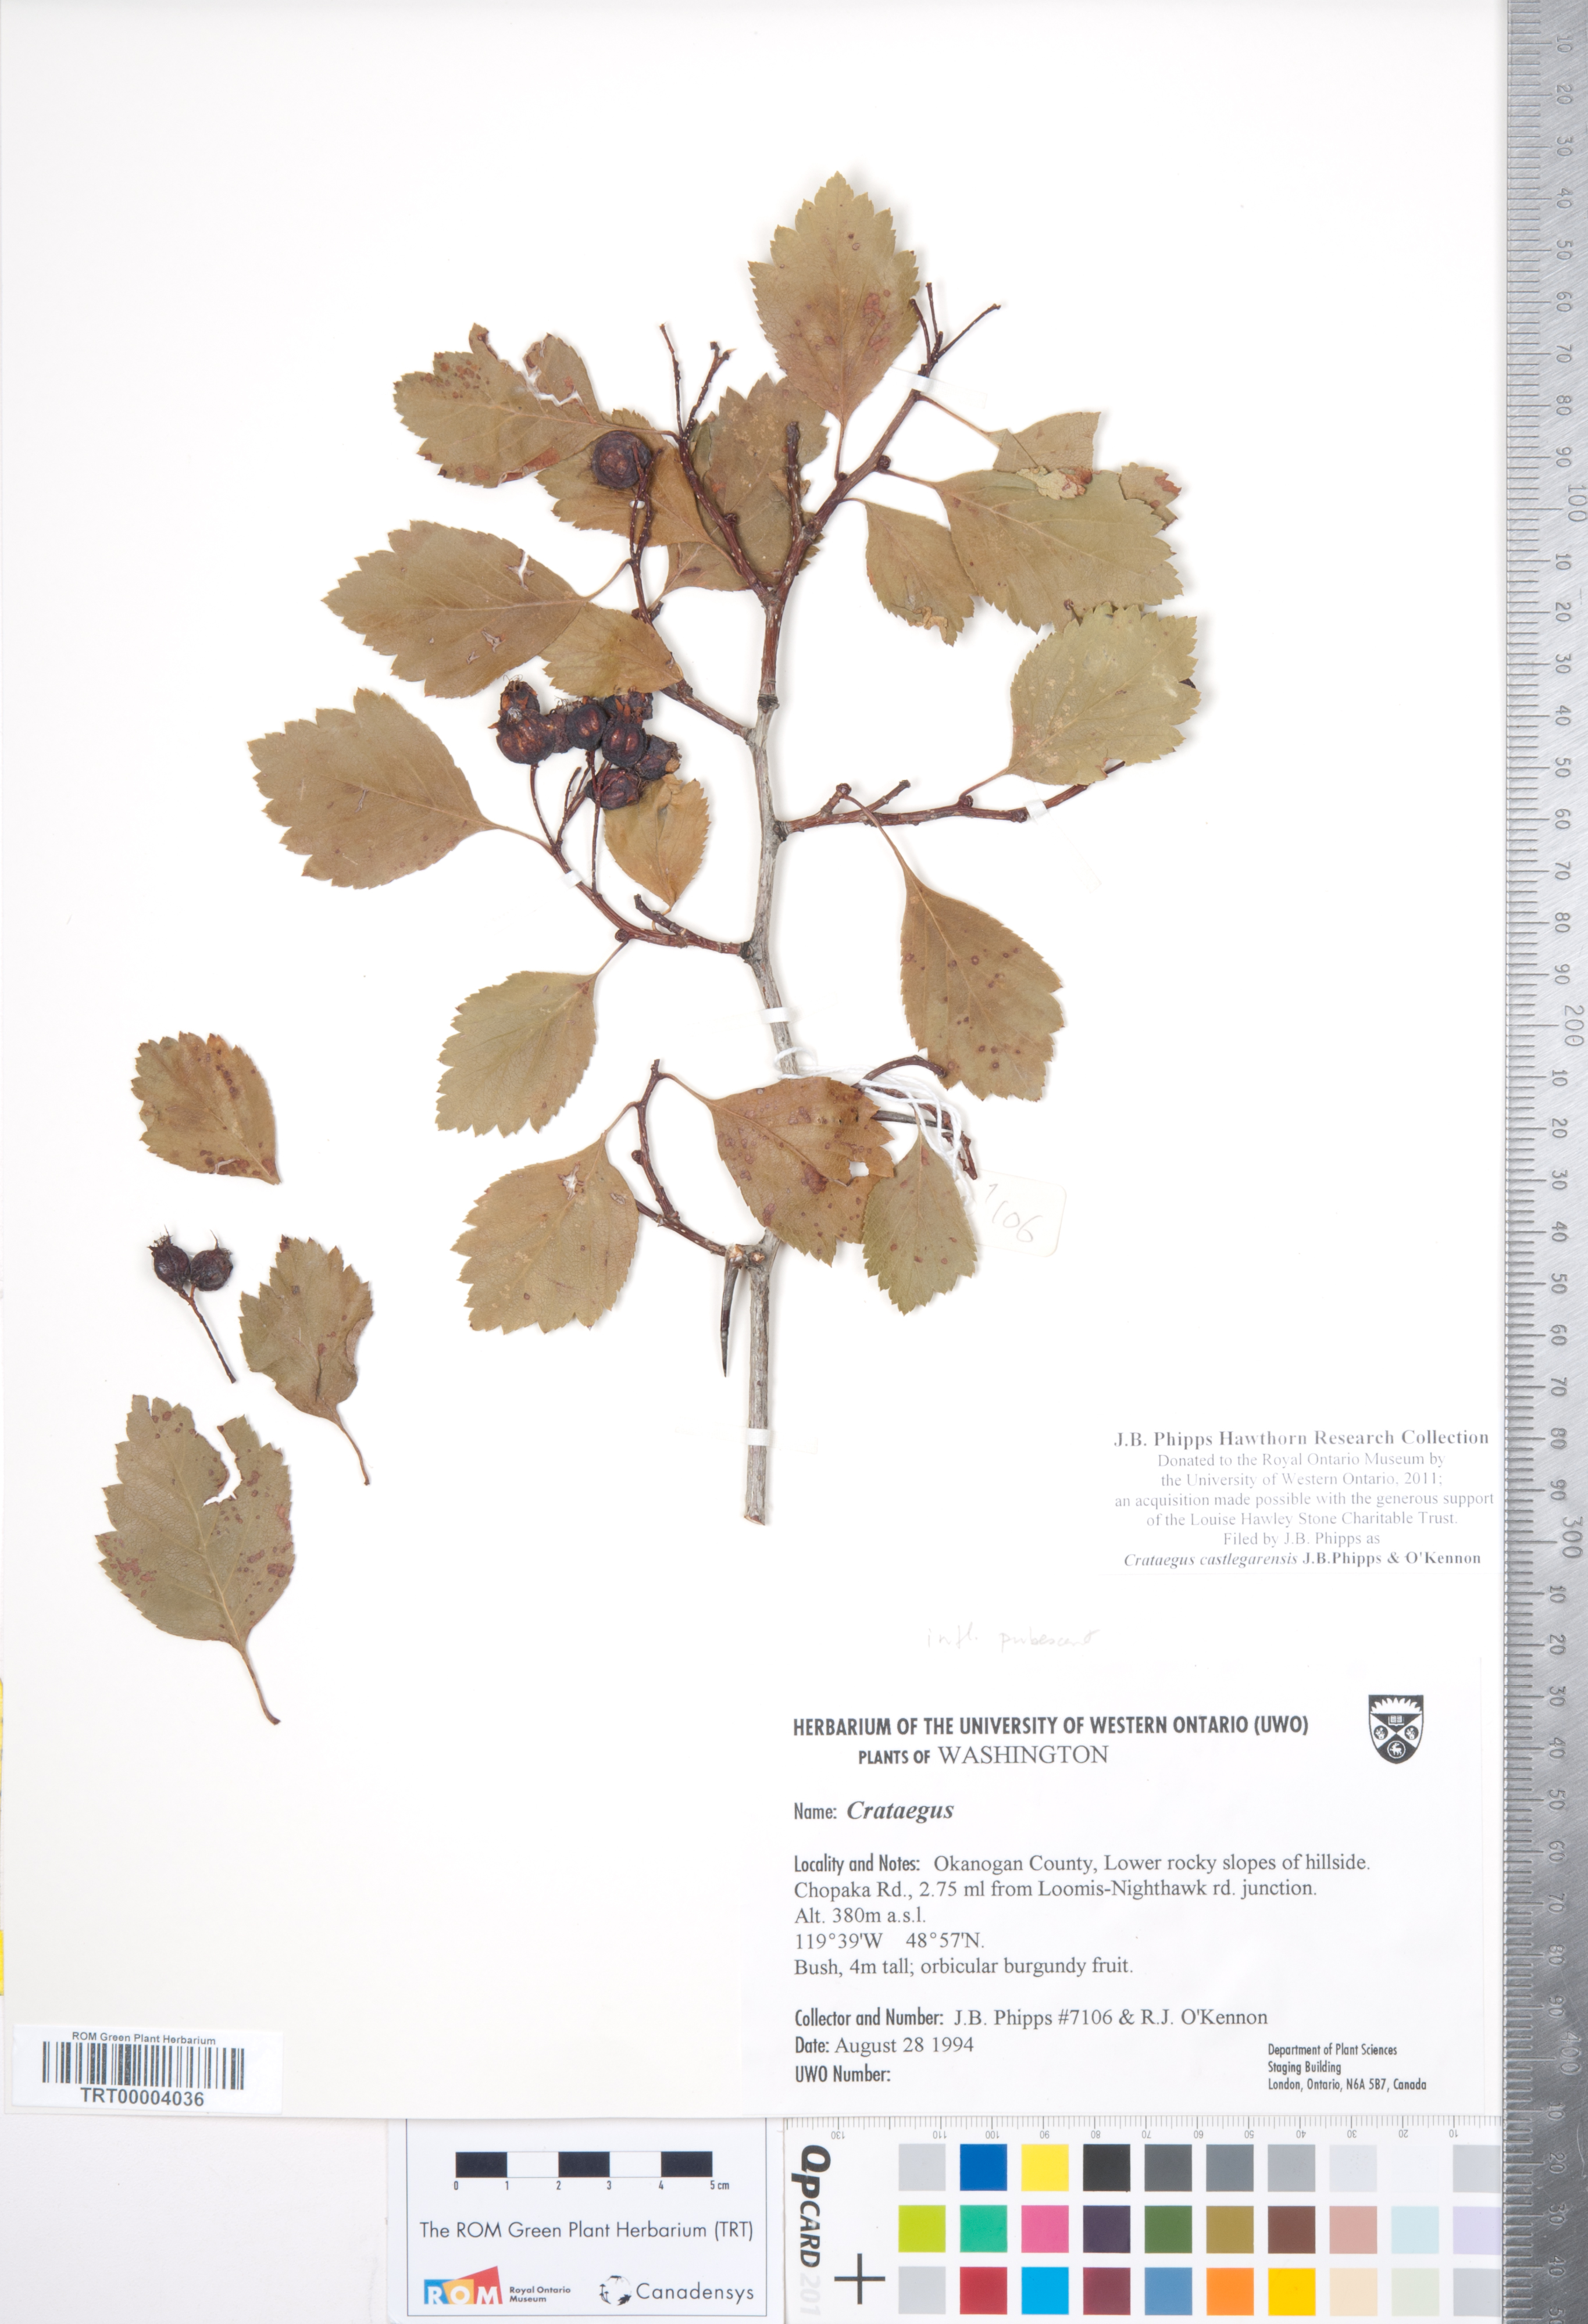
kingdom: Plantae
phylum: Tracheophyta
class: Magnoliopsida
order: Rosales
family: Rosaceae
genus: Crataegus
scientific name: Crataegus castlegarensis
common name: Castlegar hawthorn
